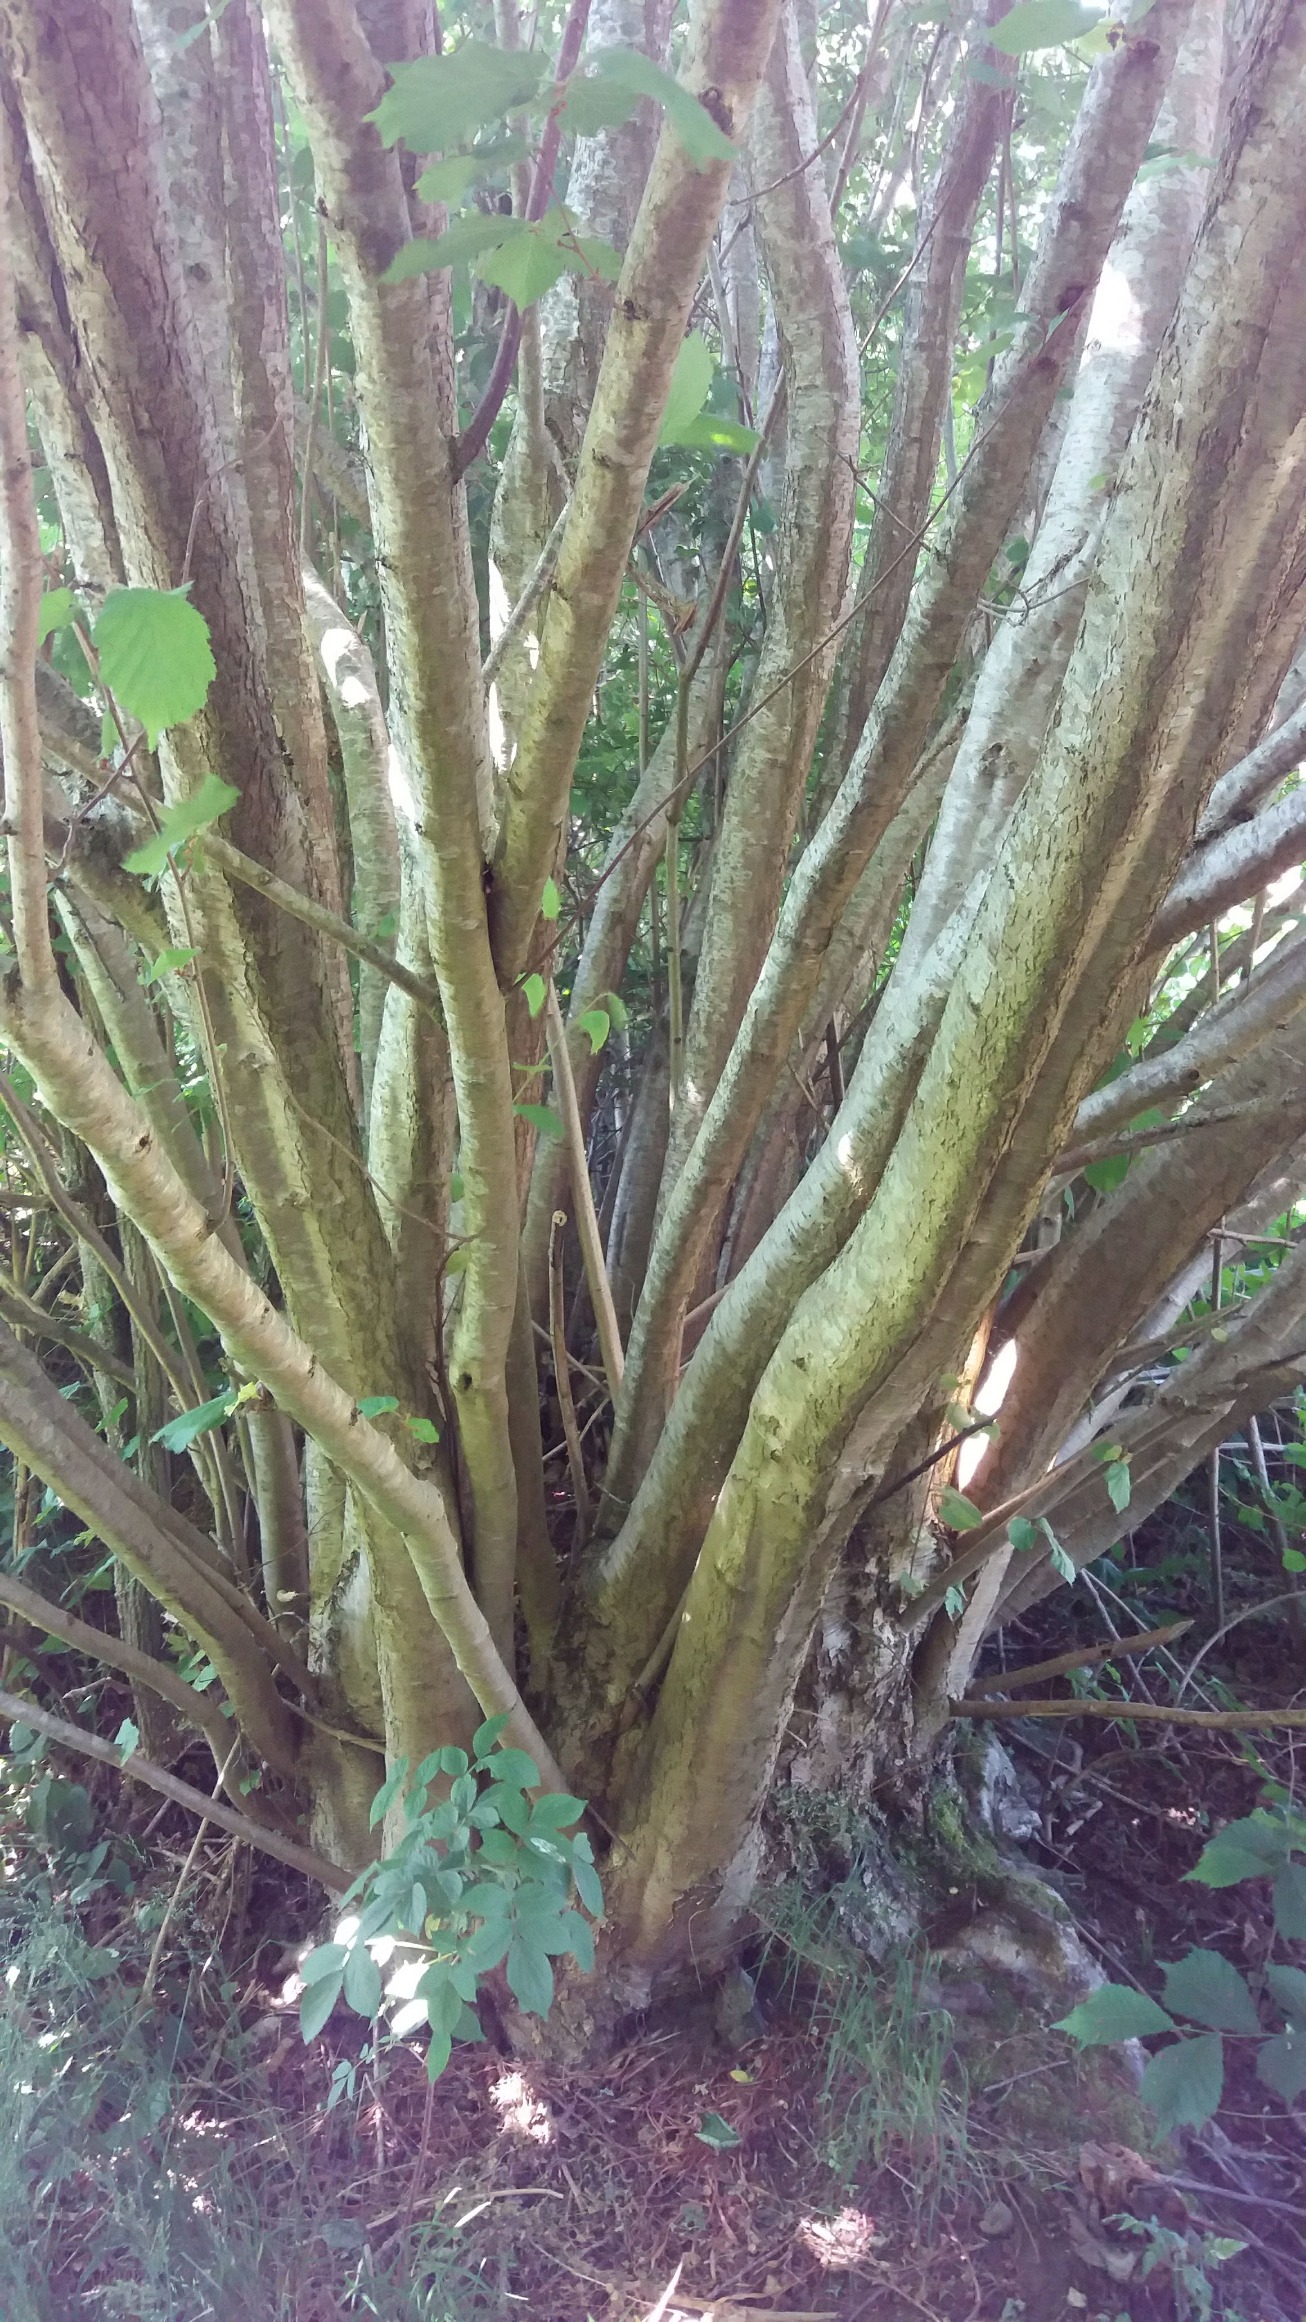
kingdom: Plantae
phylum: Tracheophyta
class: Magnoliopsida
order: Fagales
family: Betulaceae
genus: Corylus
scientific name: Corylus avellana
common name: Hassel
